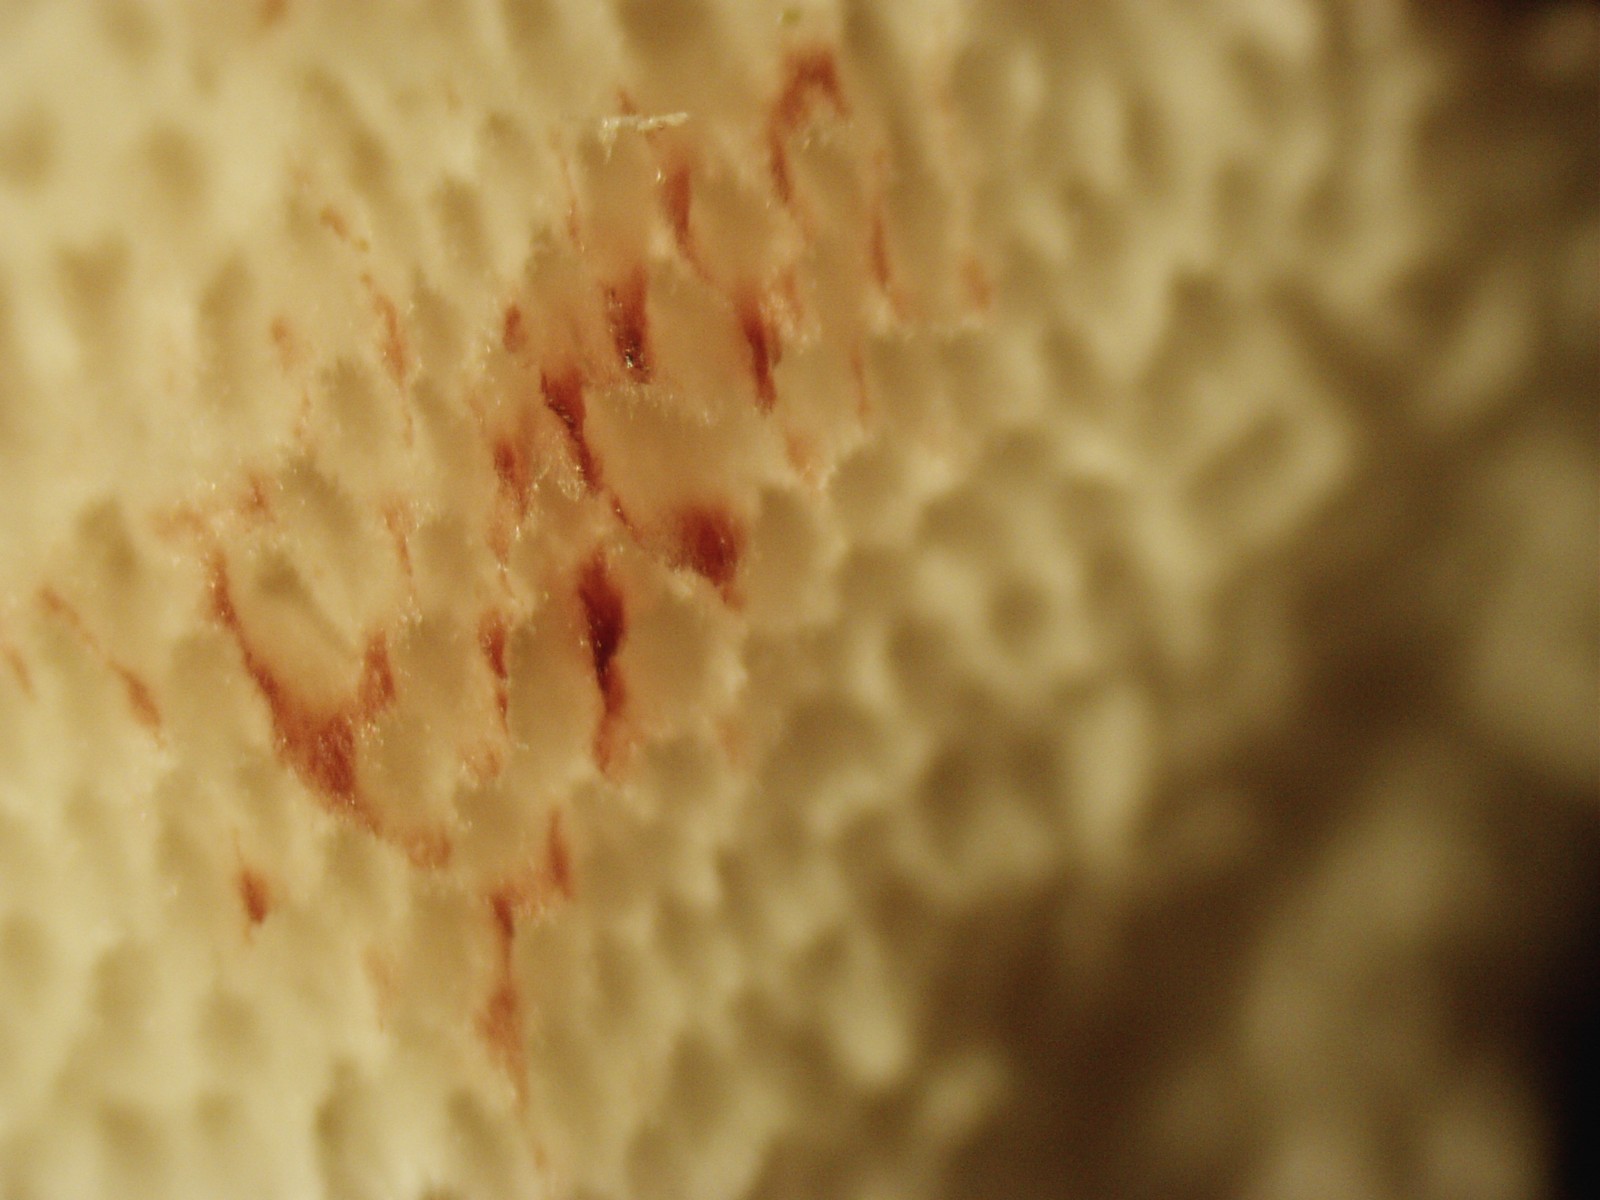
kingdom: Fungi
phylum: Basidiomycota
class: Agaricomycetes
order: Polyporales
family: Meripilaceae
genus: Rigidoporus
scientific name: Rigidoporus sanguinolentus
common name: blod-skorpeporesvamp
